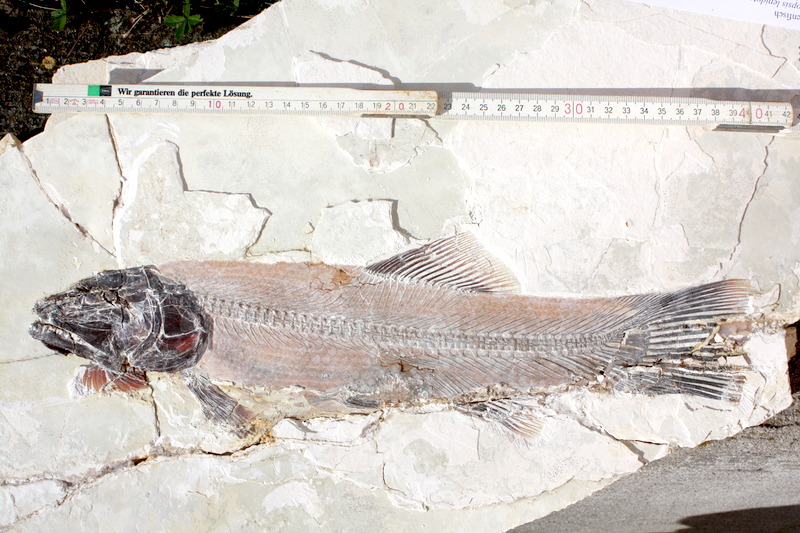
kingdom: Animalia
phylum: Chordata
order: Amiiformes
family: Amiidae
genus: Amiopsis
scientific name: Amiopsis lepidota
